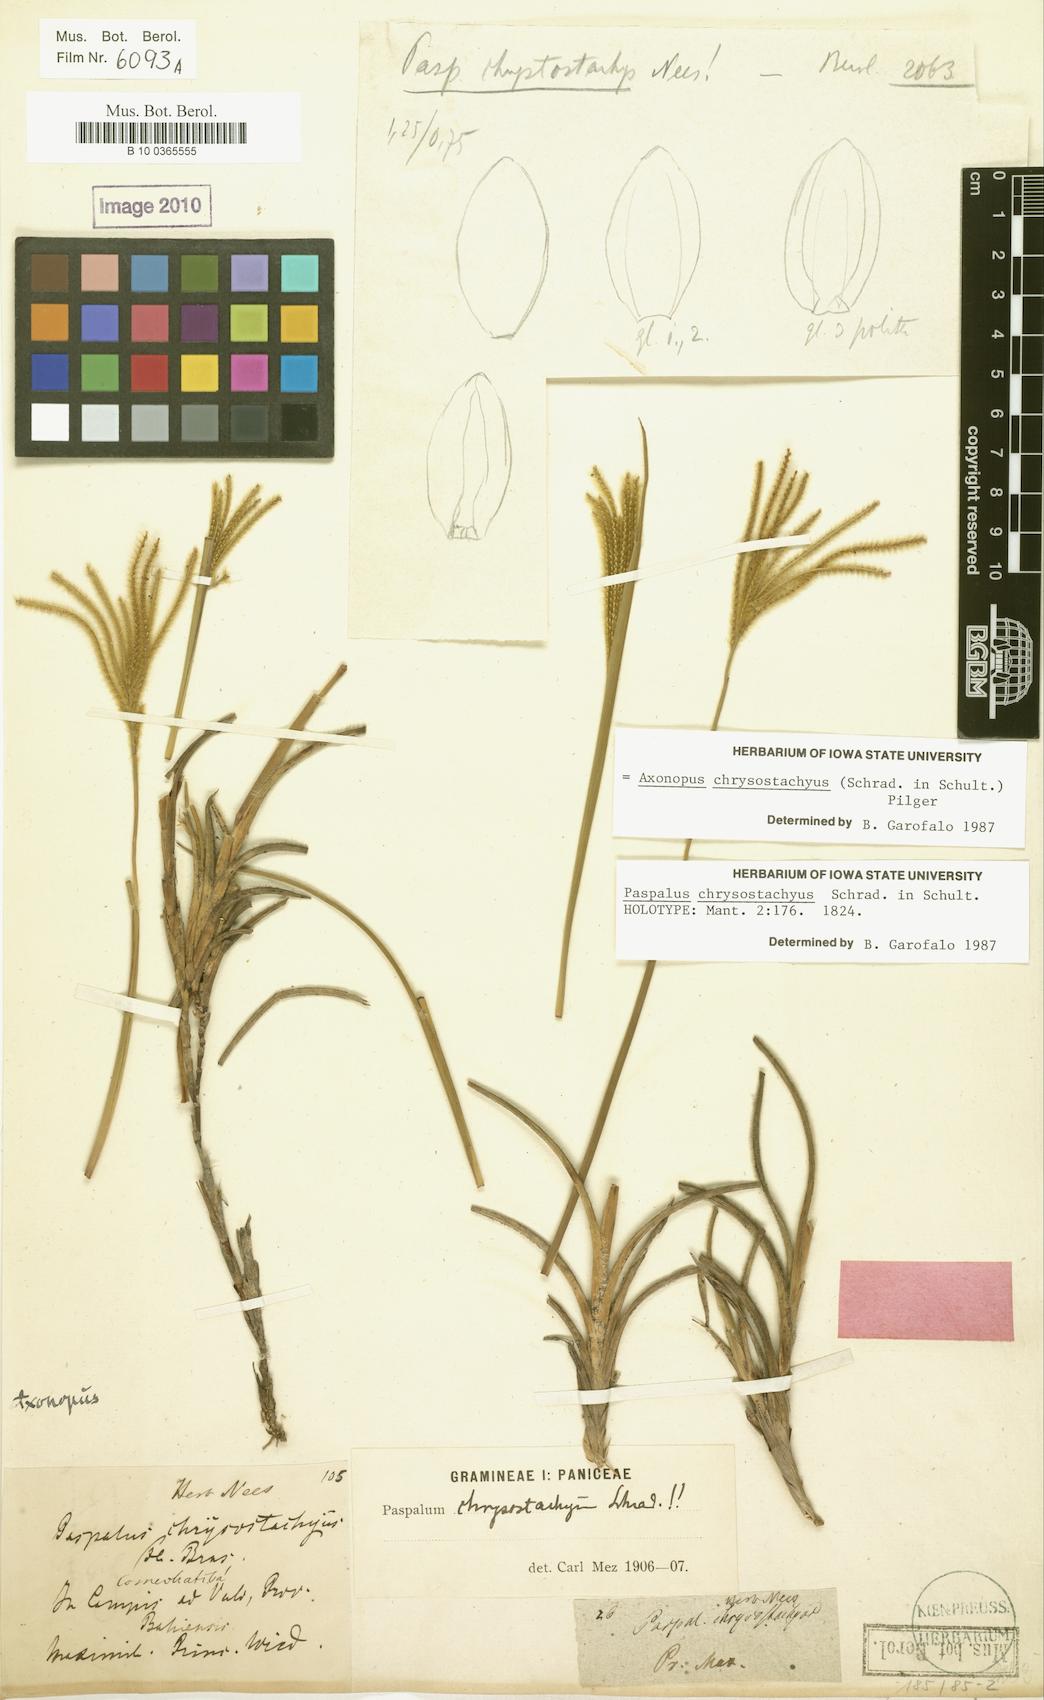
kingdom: Plantae
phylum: Tracheophyta
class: Liliopsida
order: Poales
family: Poaceae
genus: Axonopus
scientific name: Axonopus aureus
